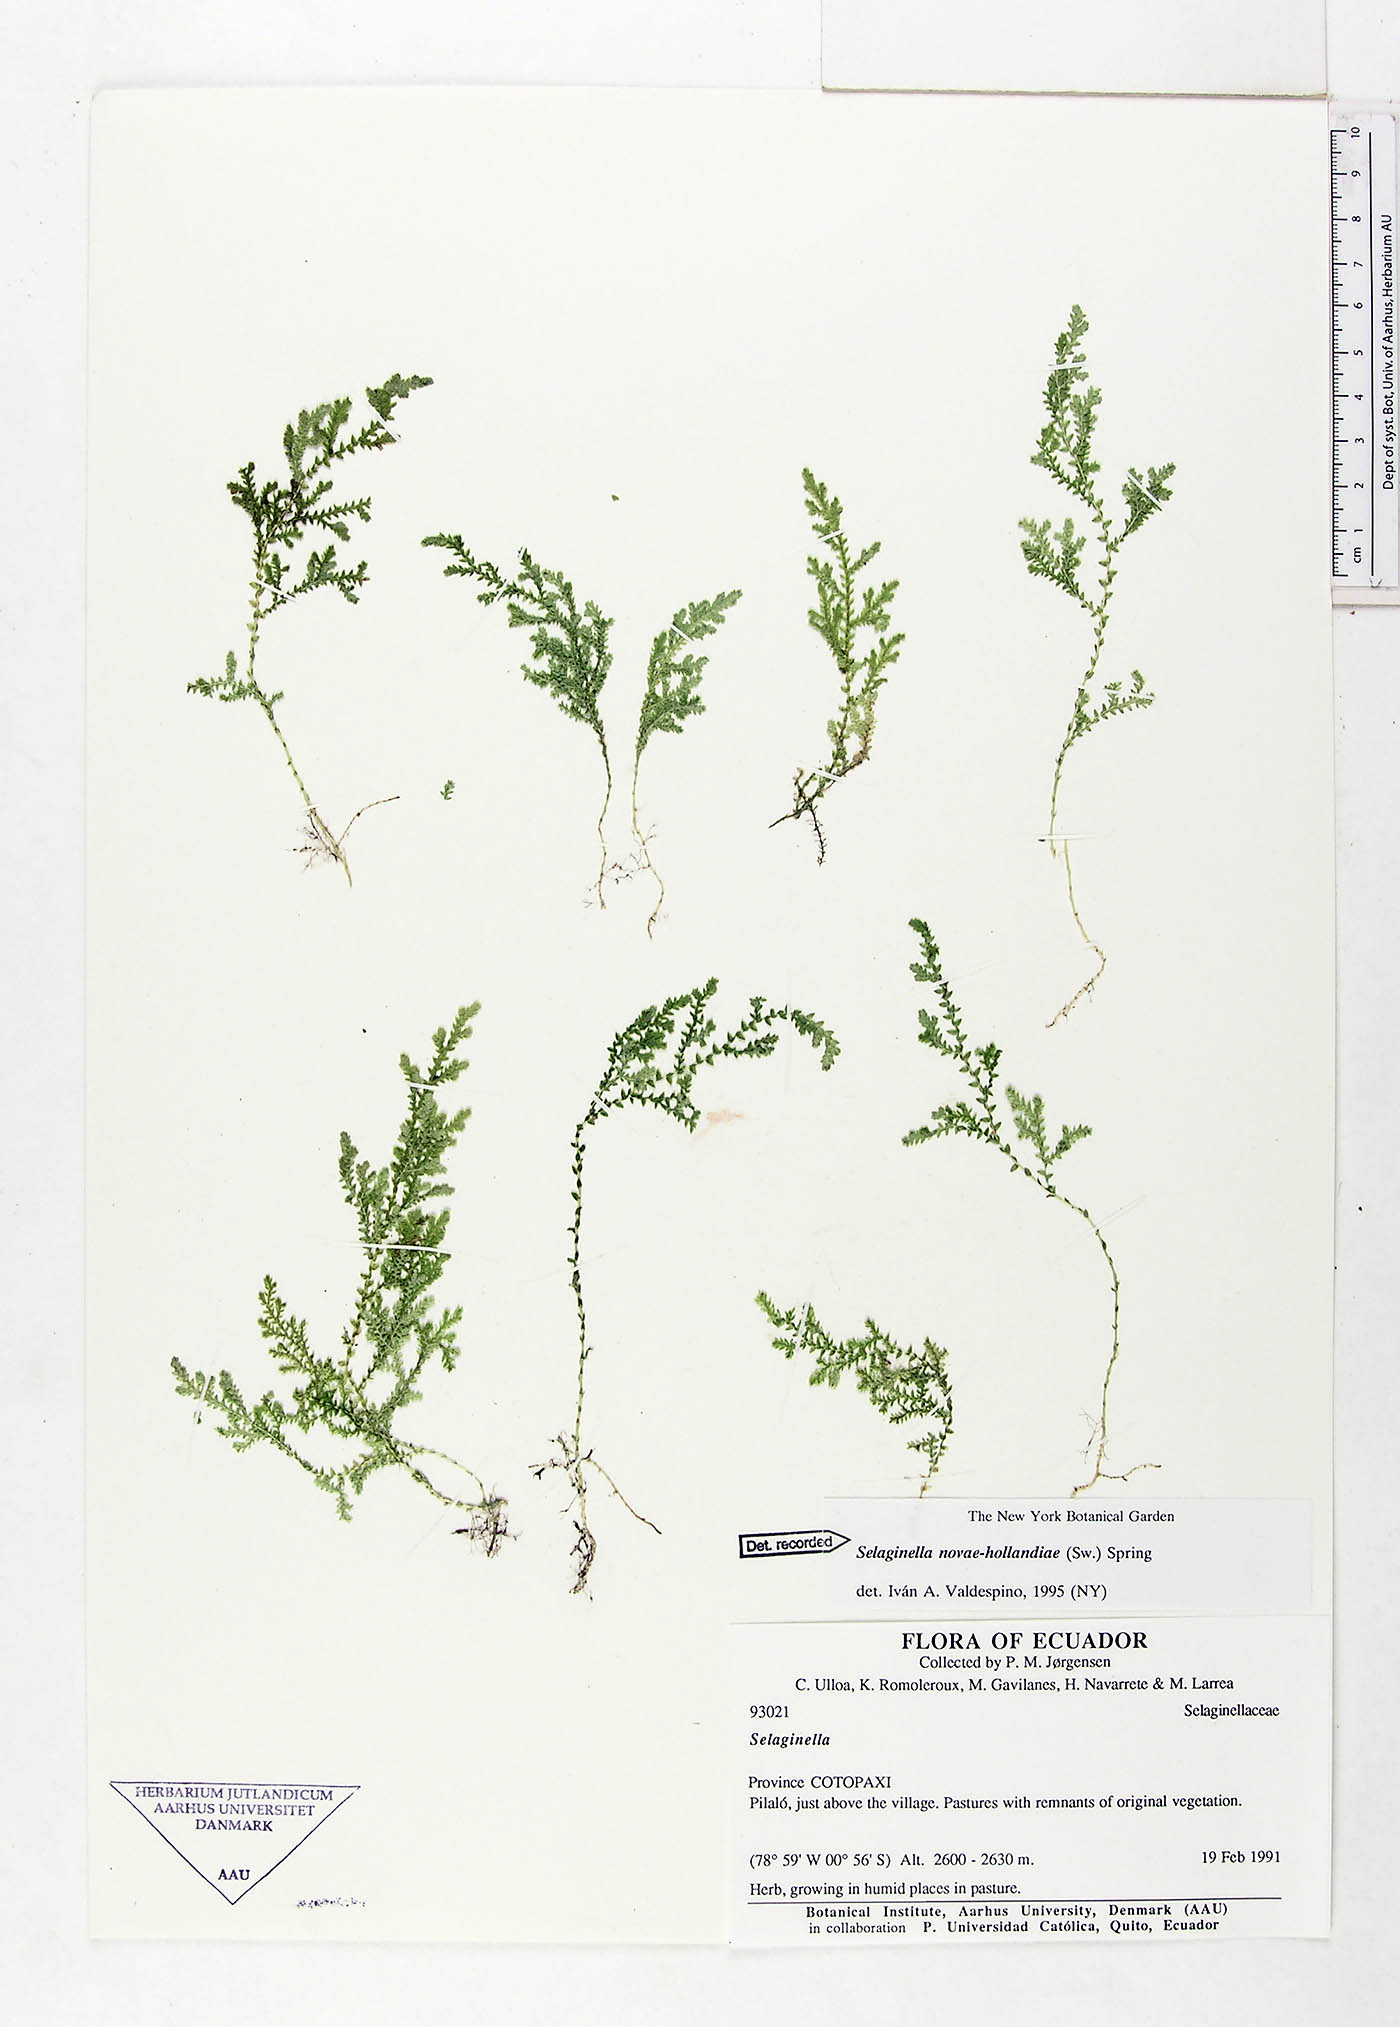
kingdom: Plantae
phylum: Tracheophyta
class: Lycopodiopsida
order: Selaginellales
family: Selaginellaceae
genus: Selaginella
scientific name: Selaginella novae-hollandiae
